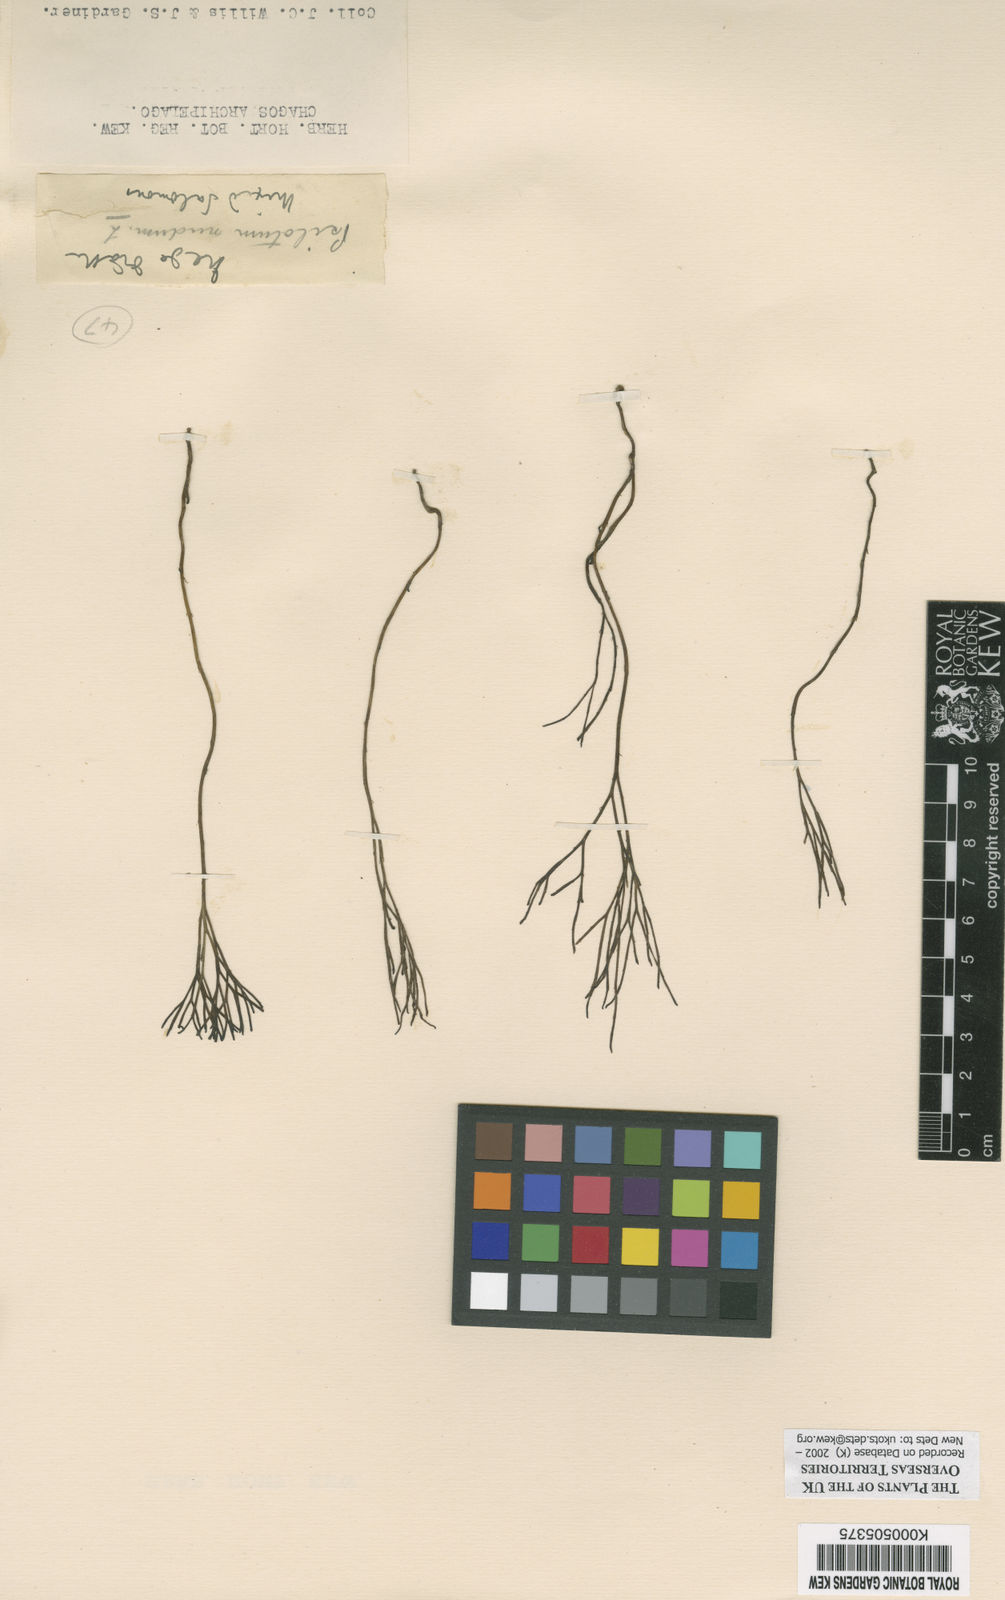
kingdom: Plantae
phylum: Tracheophyta
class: Polypodiopsida
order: Psilotales
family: Psilotaceae
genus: Psilotum
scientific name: Psilotum
